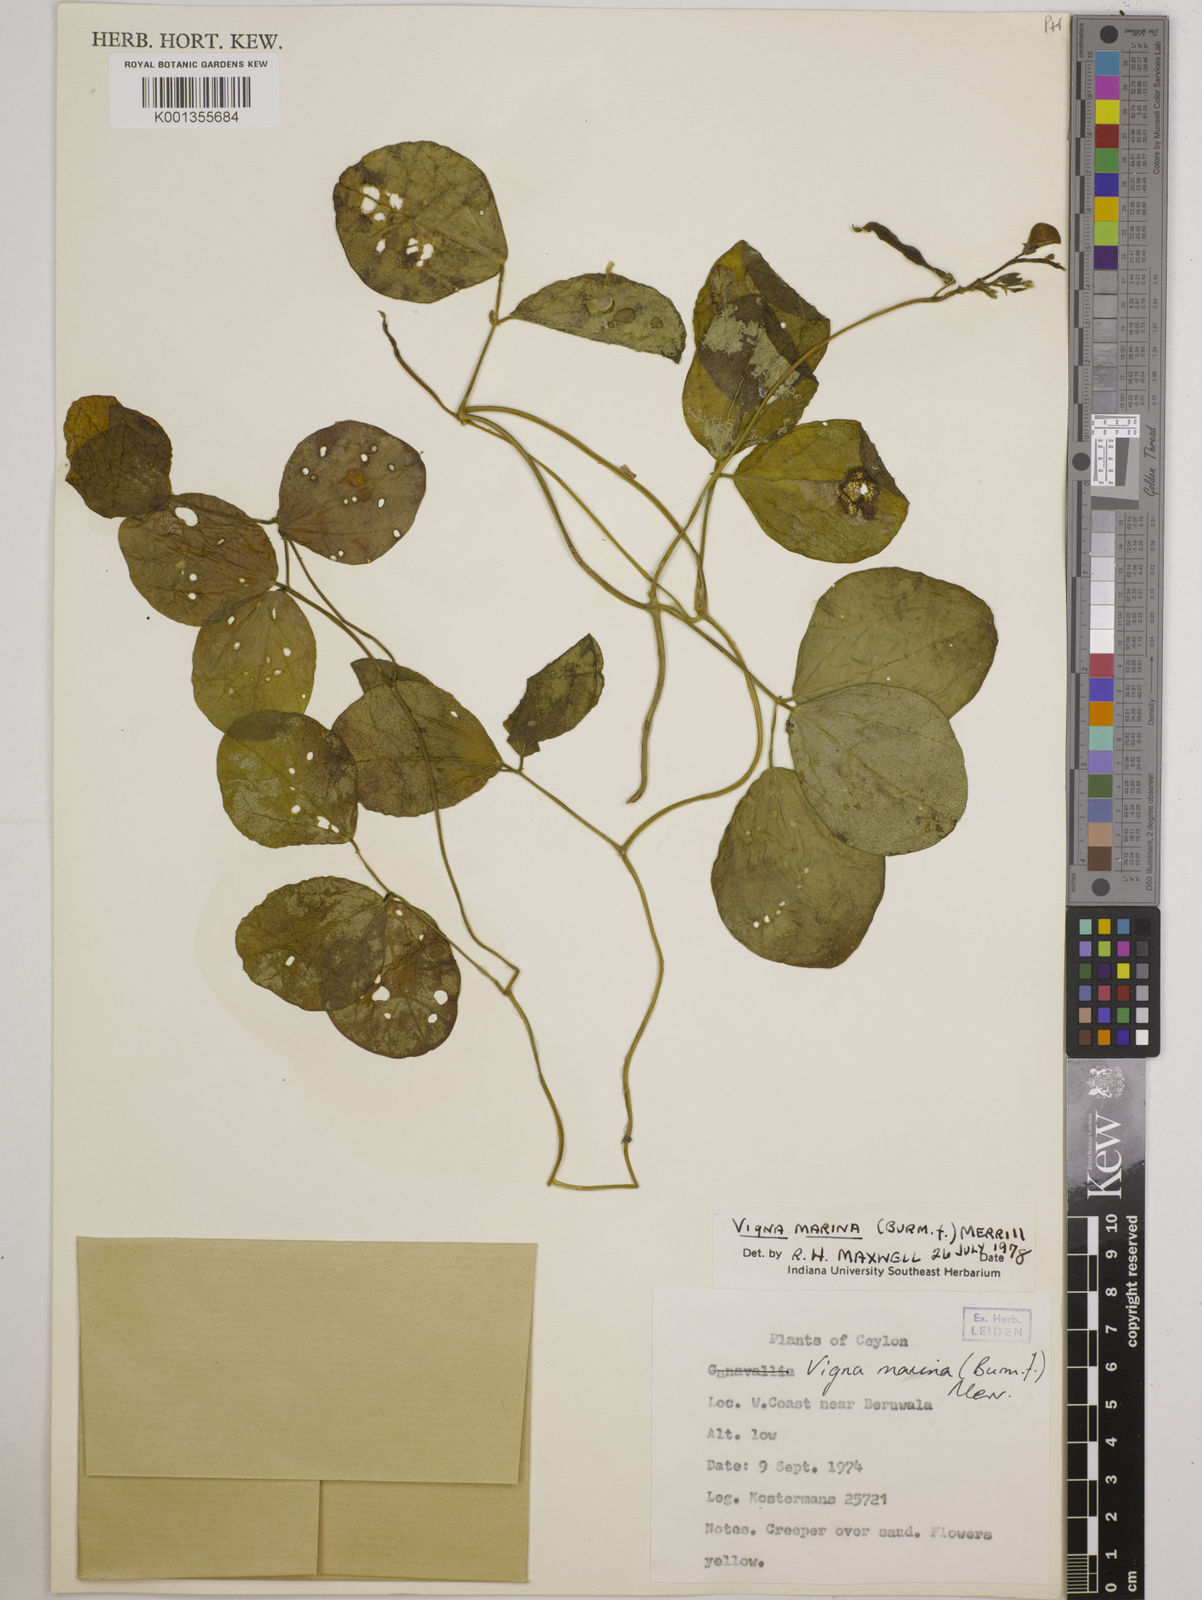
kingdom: Plantae
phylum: Tracheophyta
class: Magnoliopsida
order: Fabales
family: Fabaceae
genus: Vigna
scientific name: Vigna marina
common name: Dune-bean
